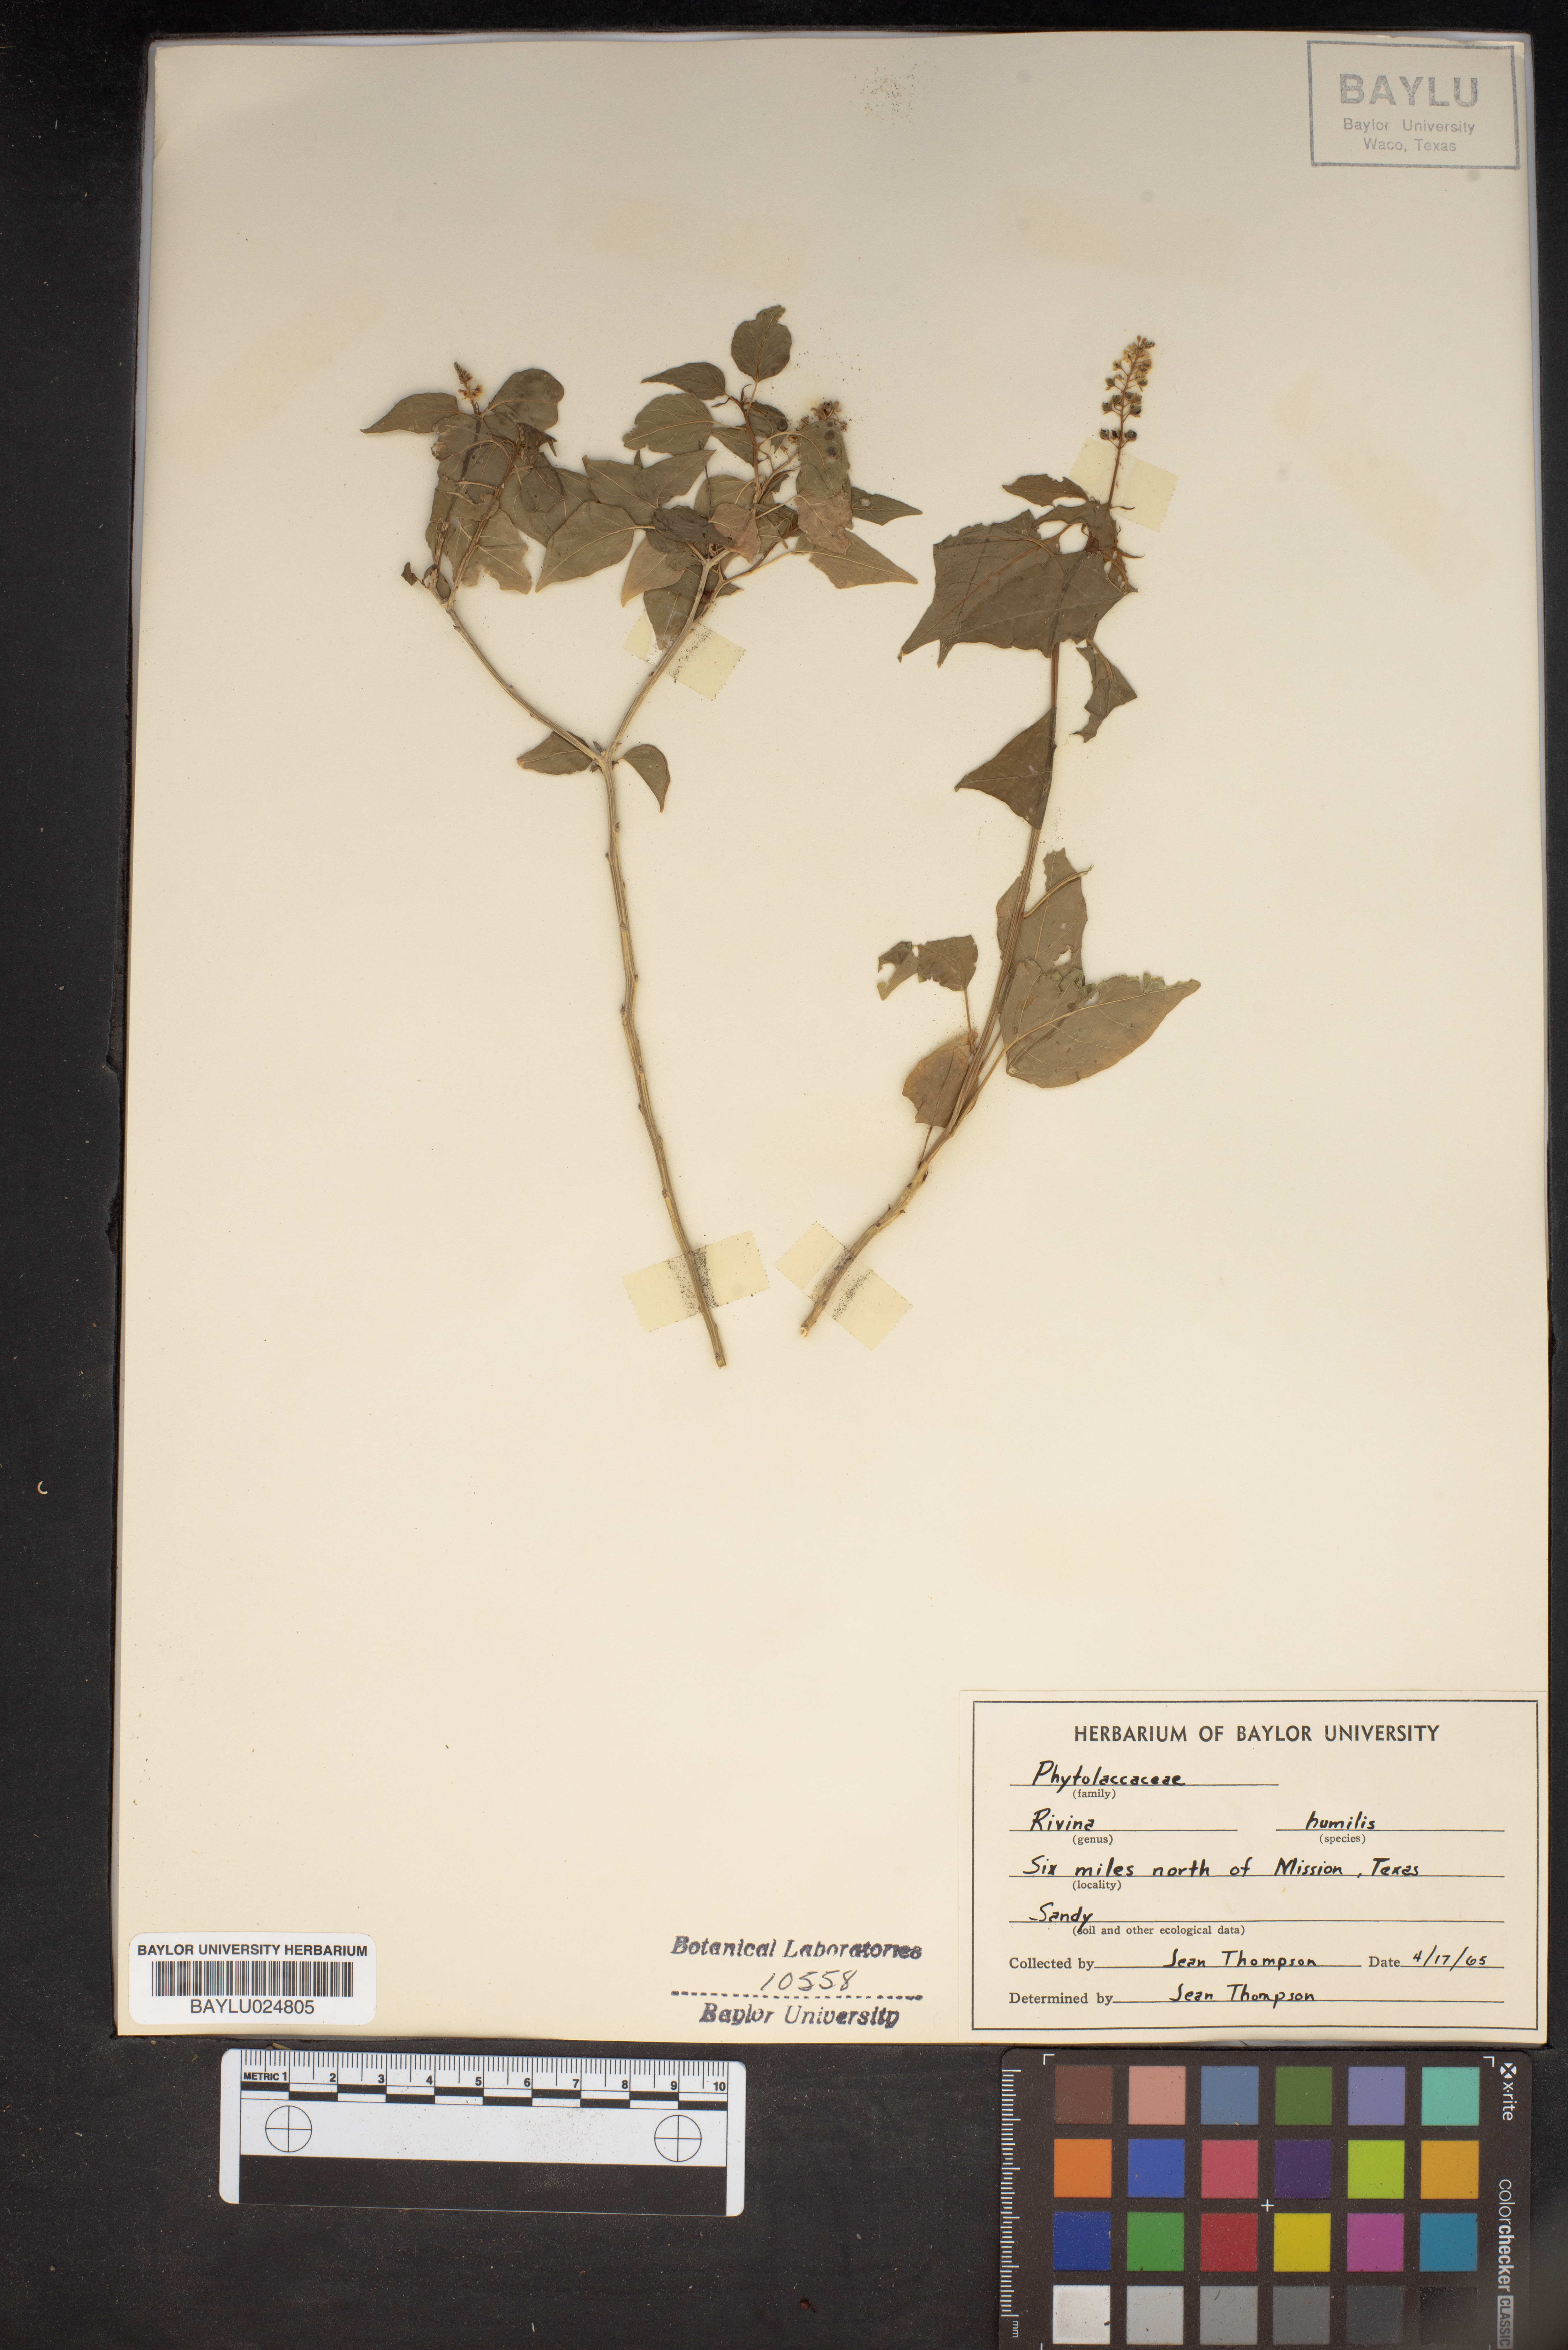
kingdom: Plantae
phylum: Tracheophyta
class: Magnoliopsida
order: Caryophyllales
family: Phytolaccaceae
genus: Rivina
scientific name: Rivina humilis
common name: Rougeplant
